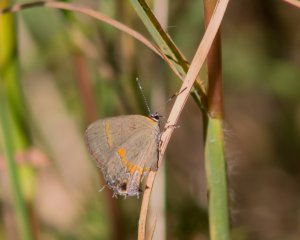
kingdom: Animalia
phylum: Arthropoda
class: Insecta
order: Lepidoptera
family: Lycaenidae
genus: Calycopis
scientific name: Calycopis cecrops
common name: Red-banded Hairstreak
